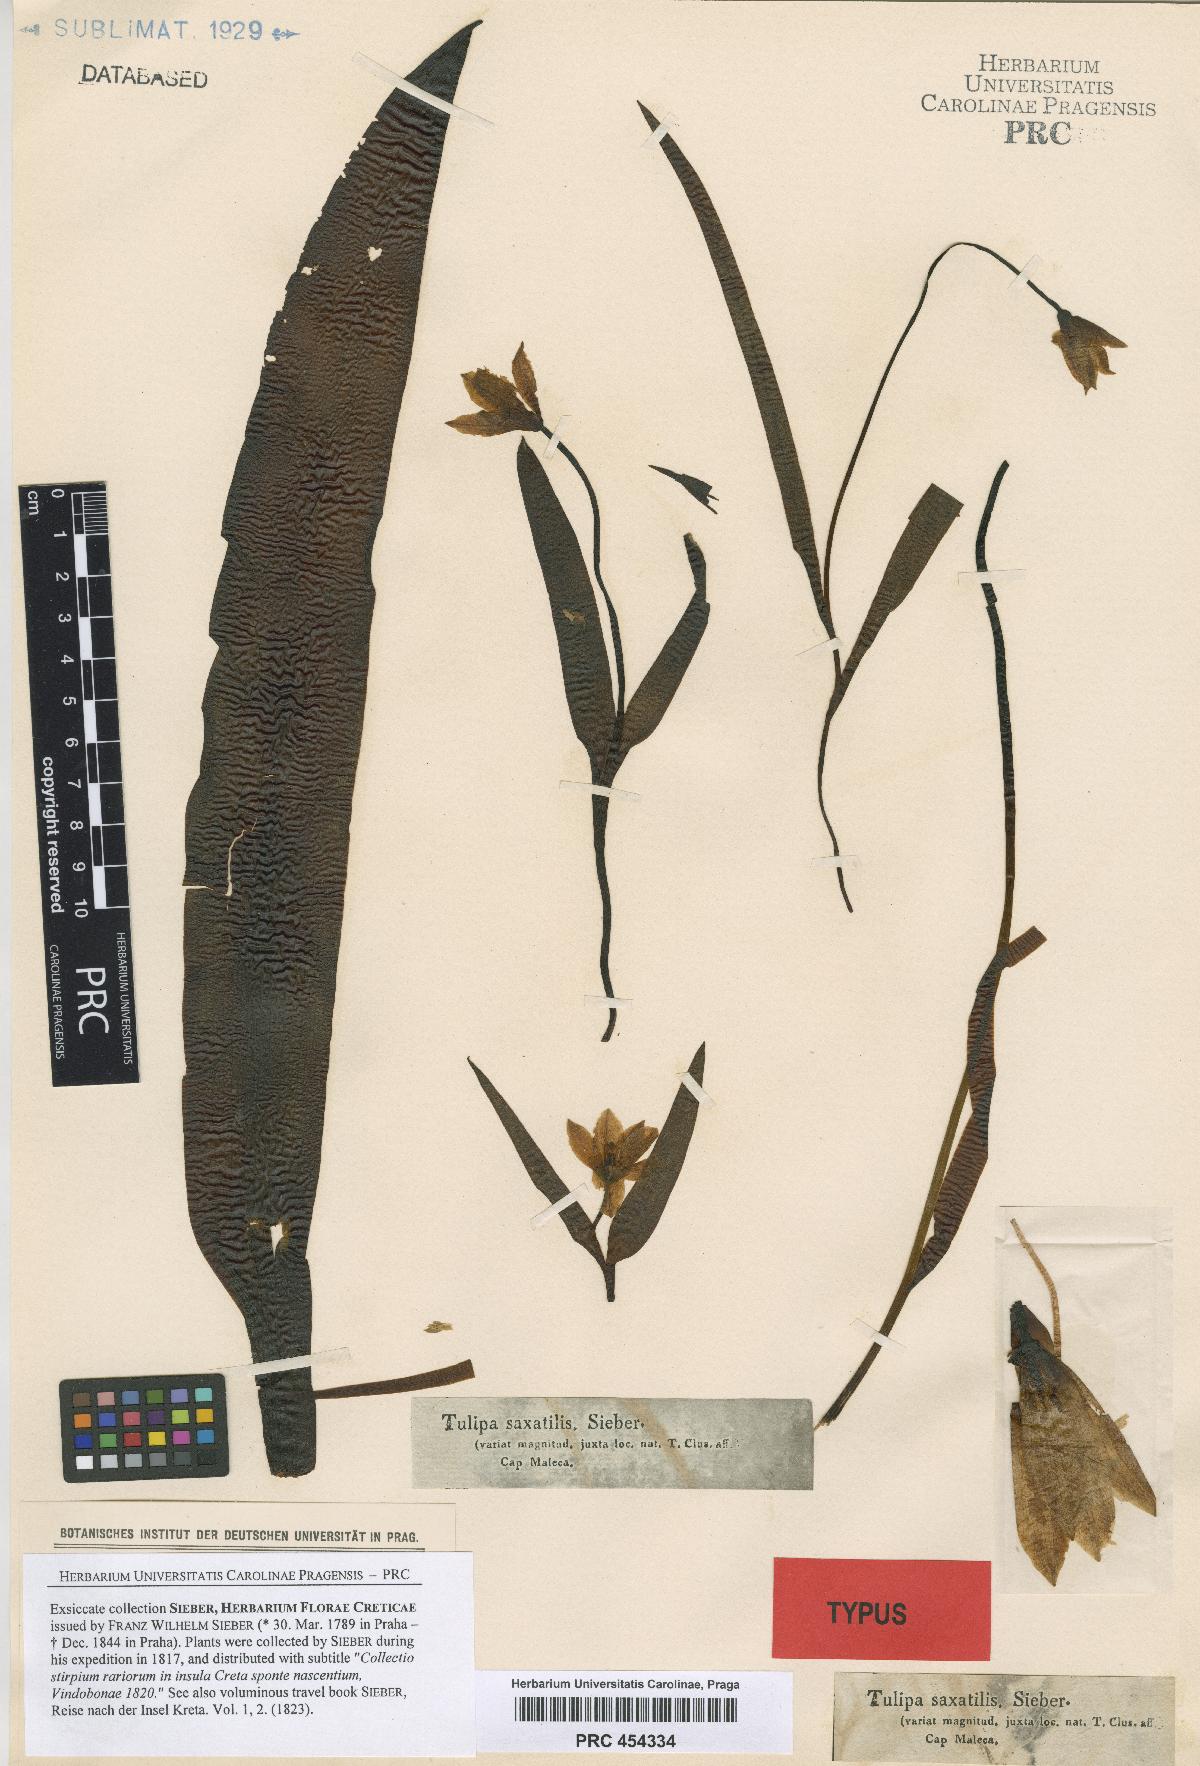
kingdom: Plantae
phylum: Tracheophyta
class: Liliopsida
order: Liliales
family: Liliaceae
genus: Tulipa
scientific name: Tulipa saxatilis
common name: Cretan tulip
